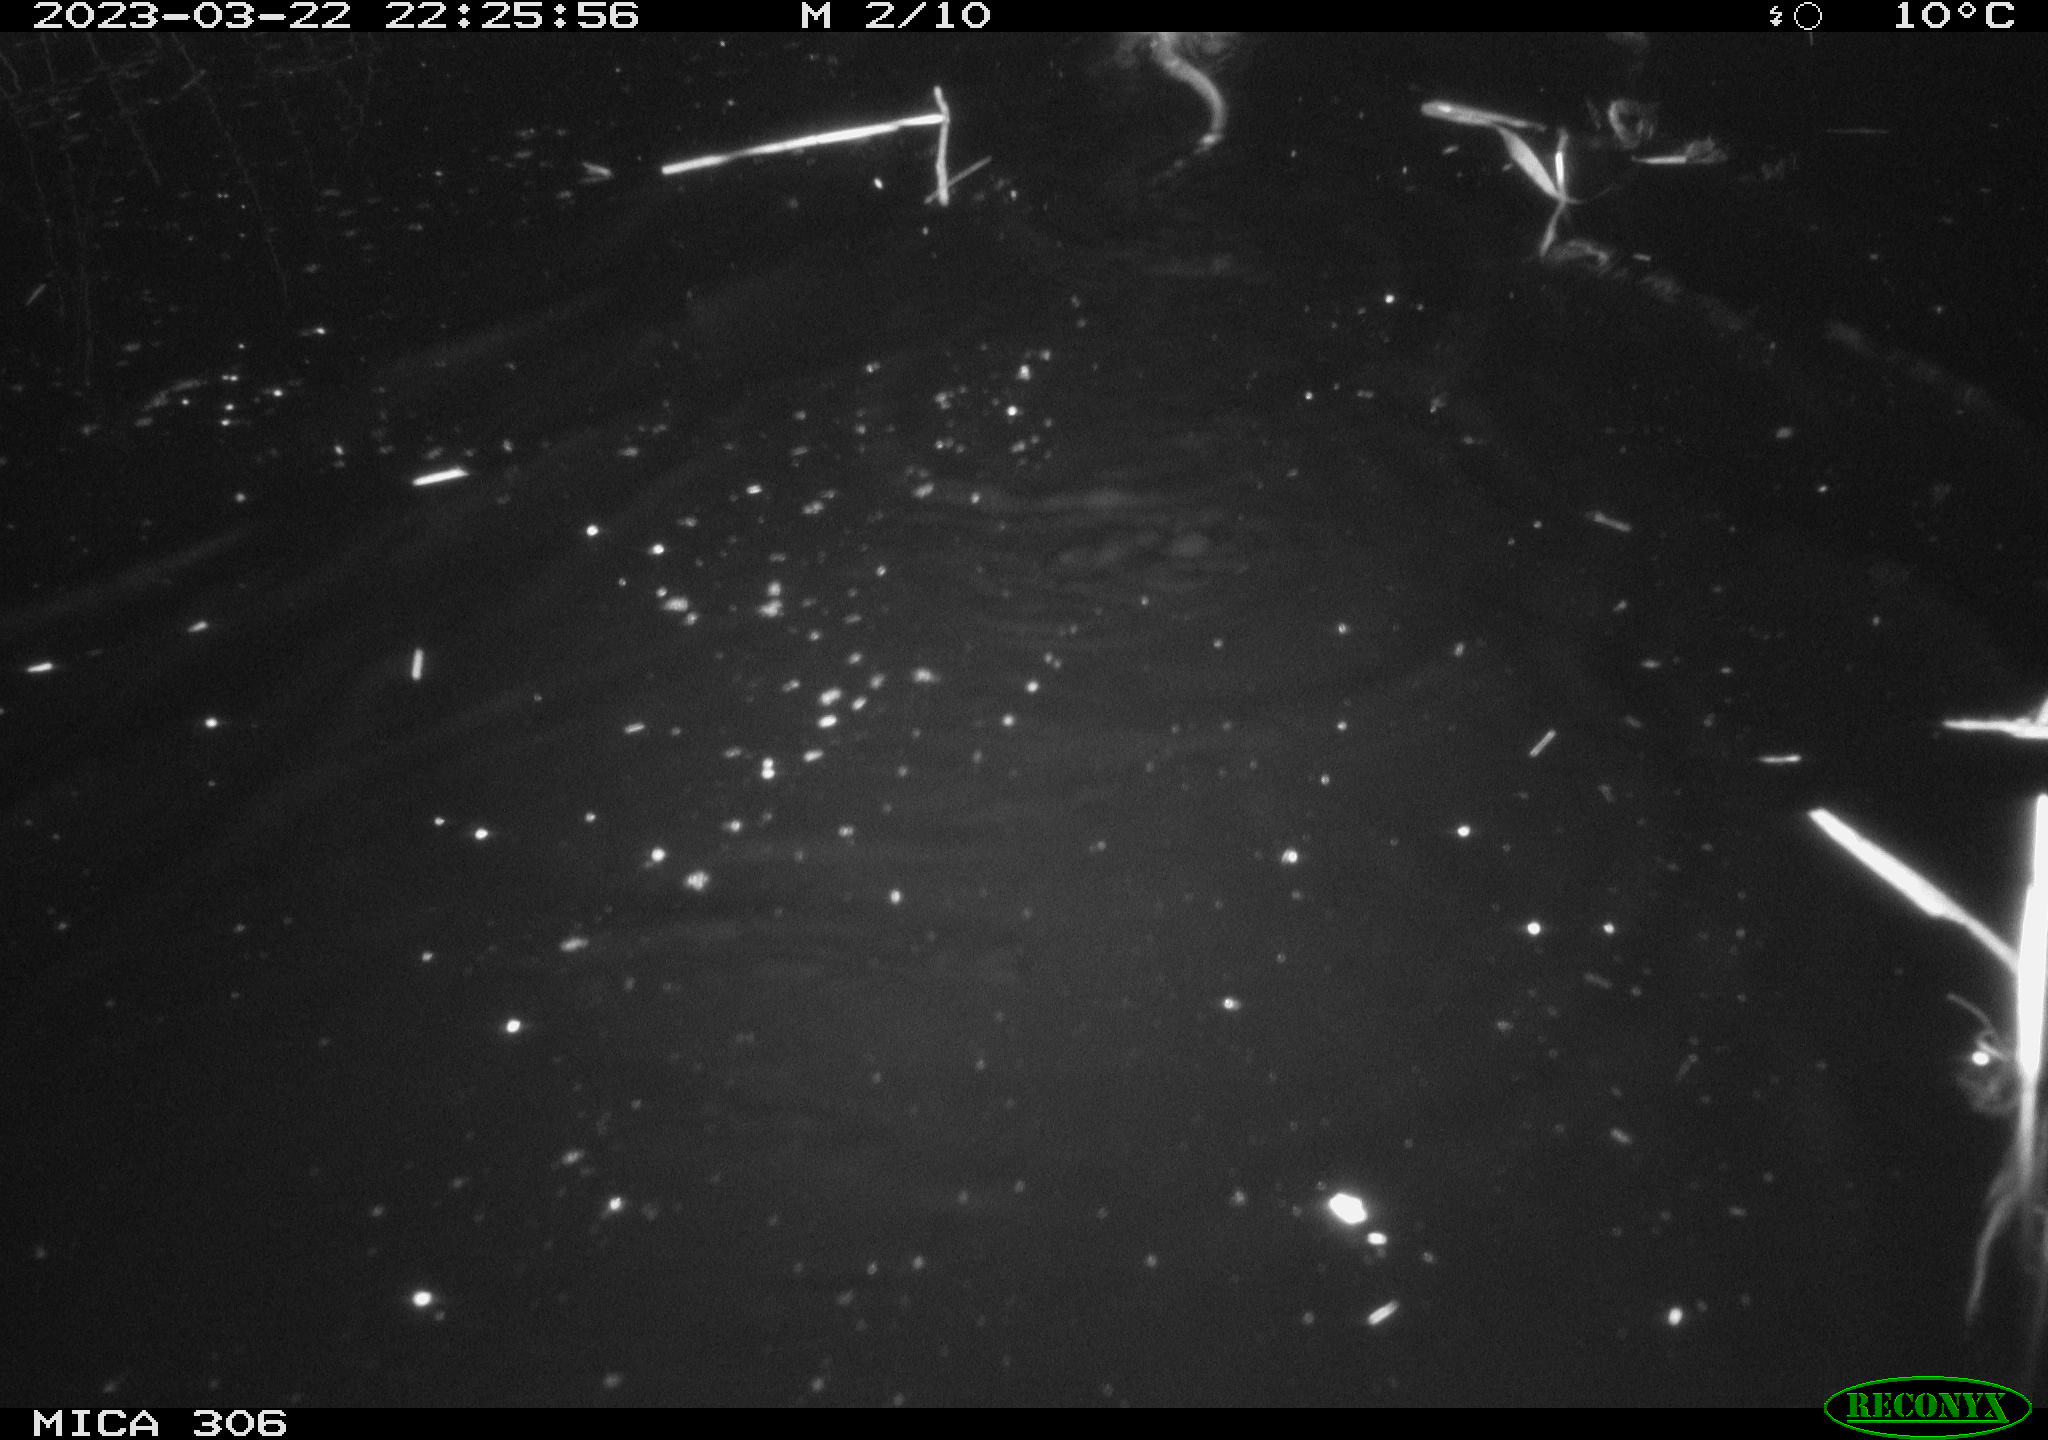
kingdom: Animalia
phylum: Chordata
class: Mammalia
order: Rodentia
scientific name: Rodentia
